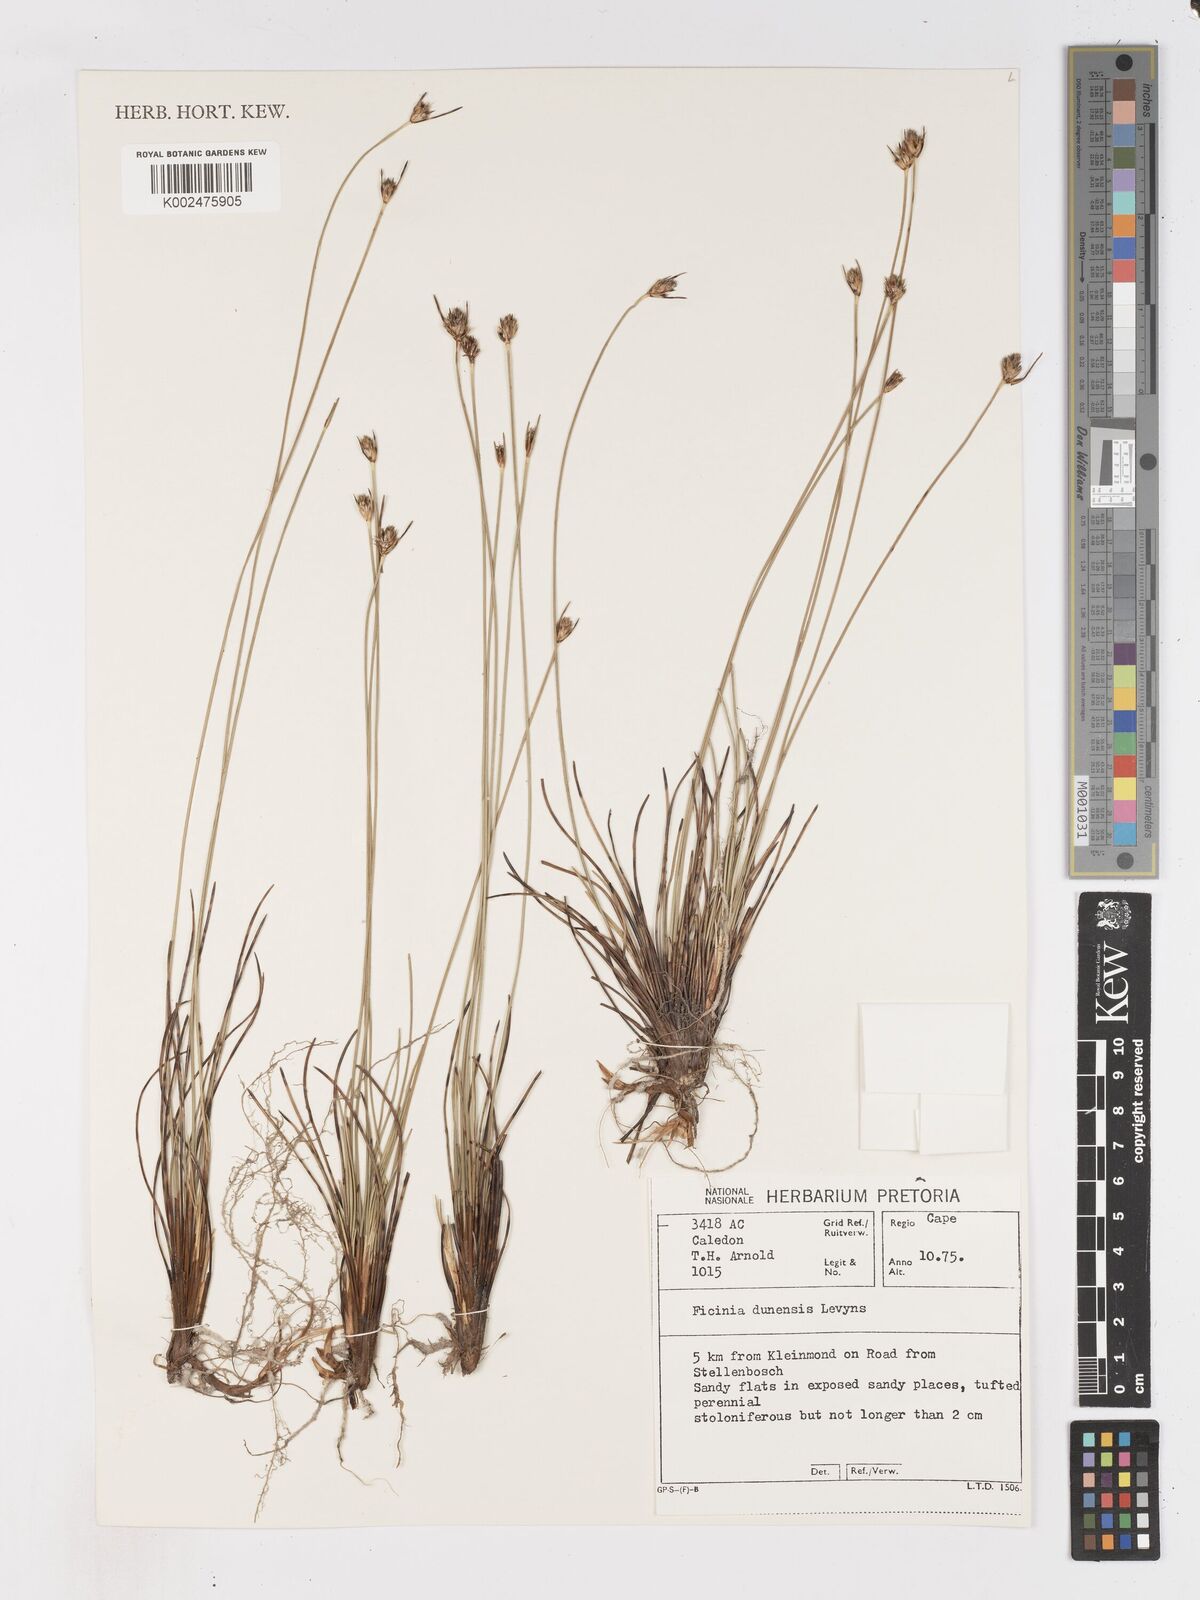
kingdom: Plantae
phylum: Tracheophyta
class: Liliopsida
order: Poales
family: Cyperaceae
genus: Ficinia
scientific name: Ficinia dunensis
